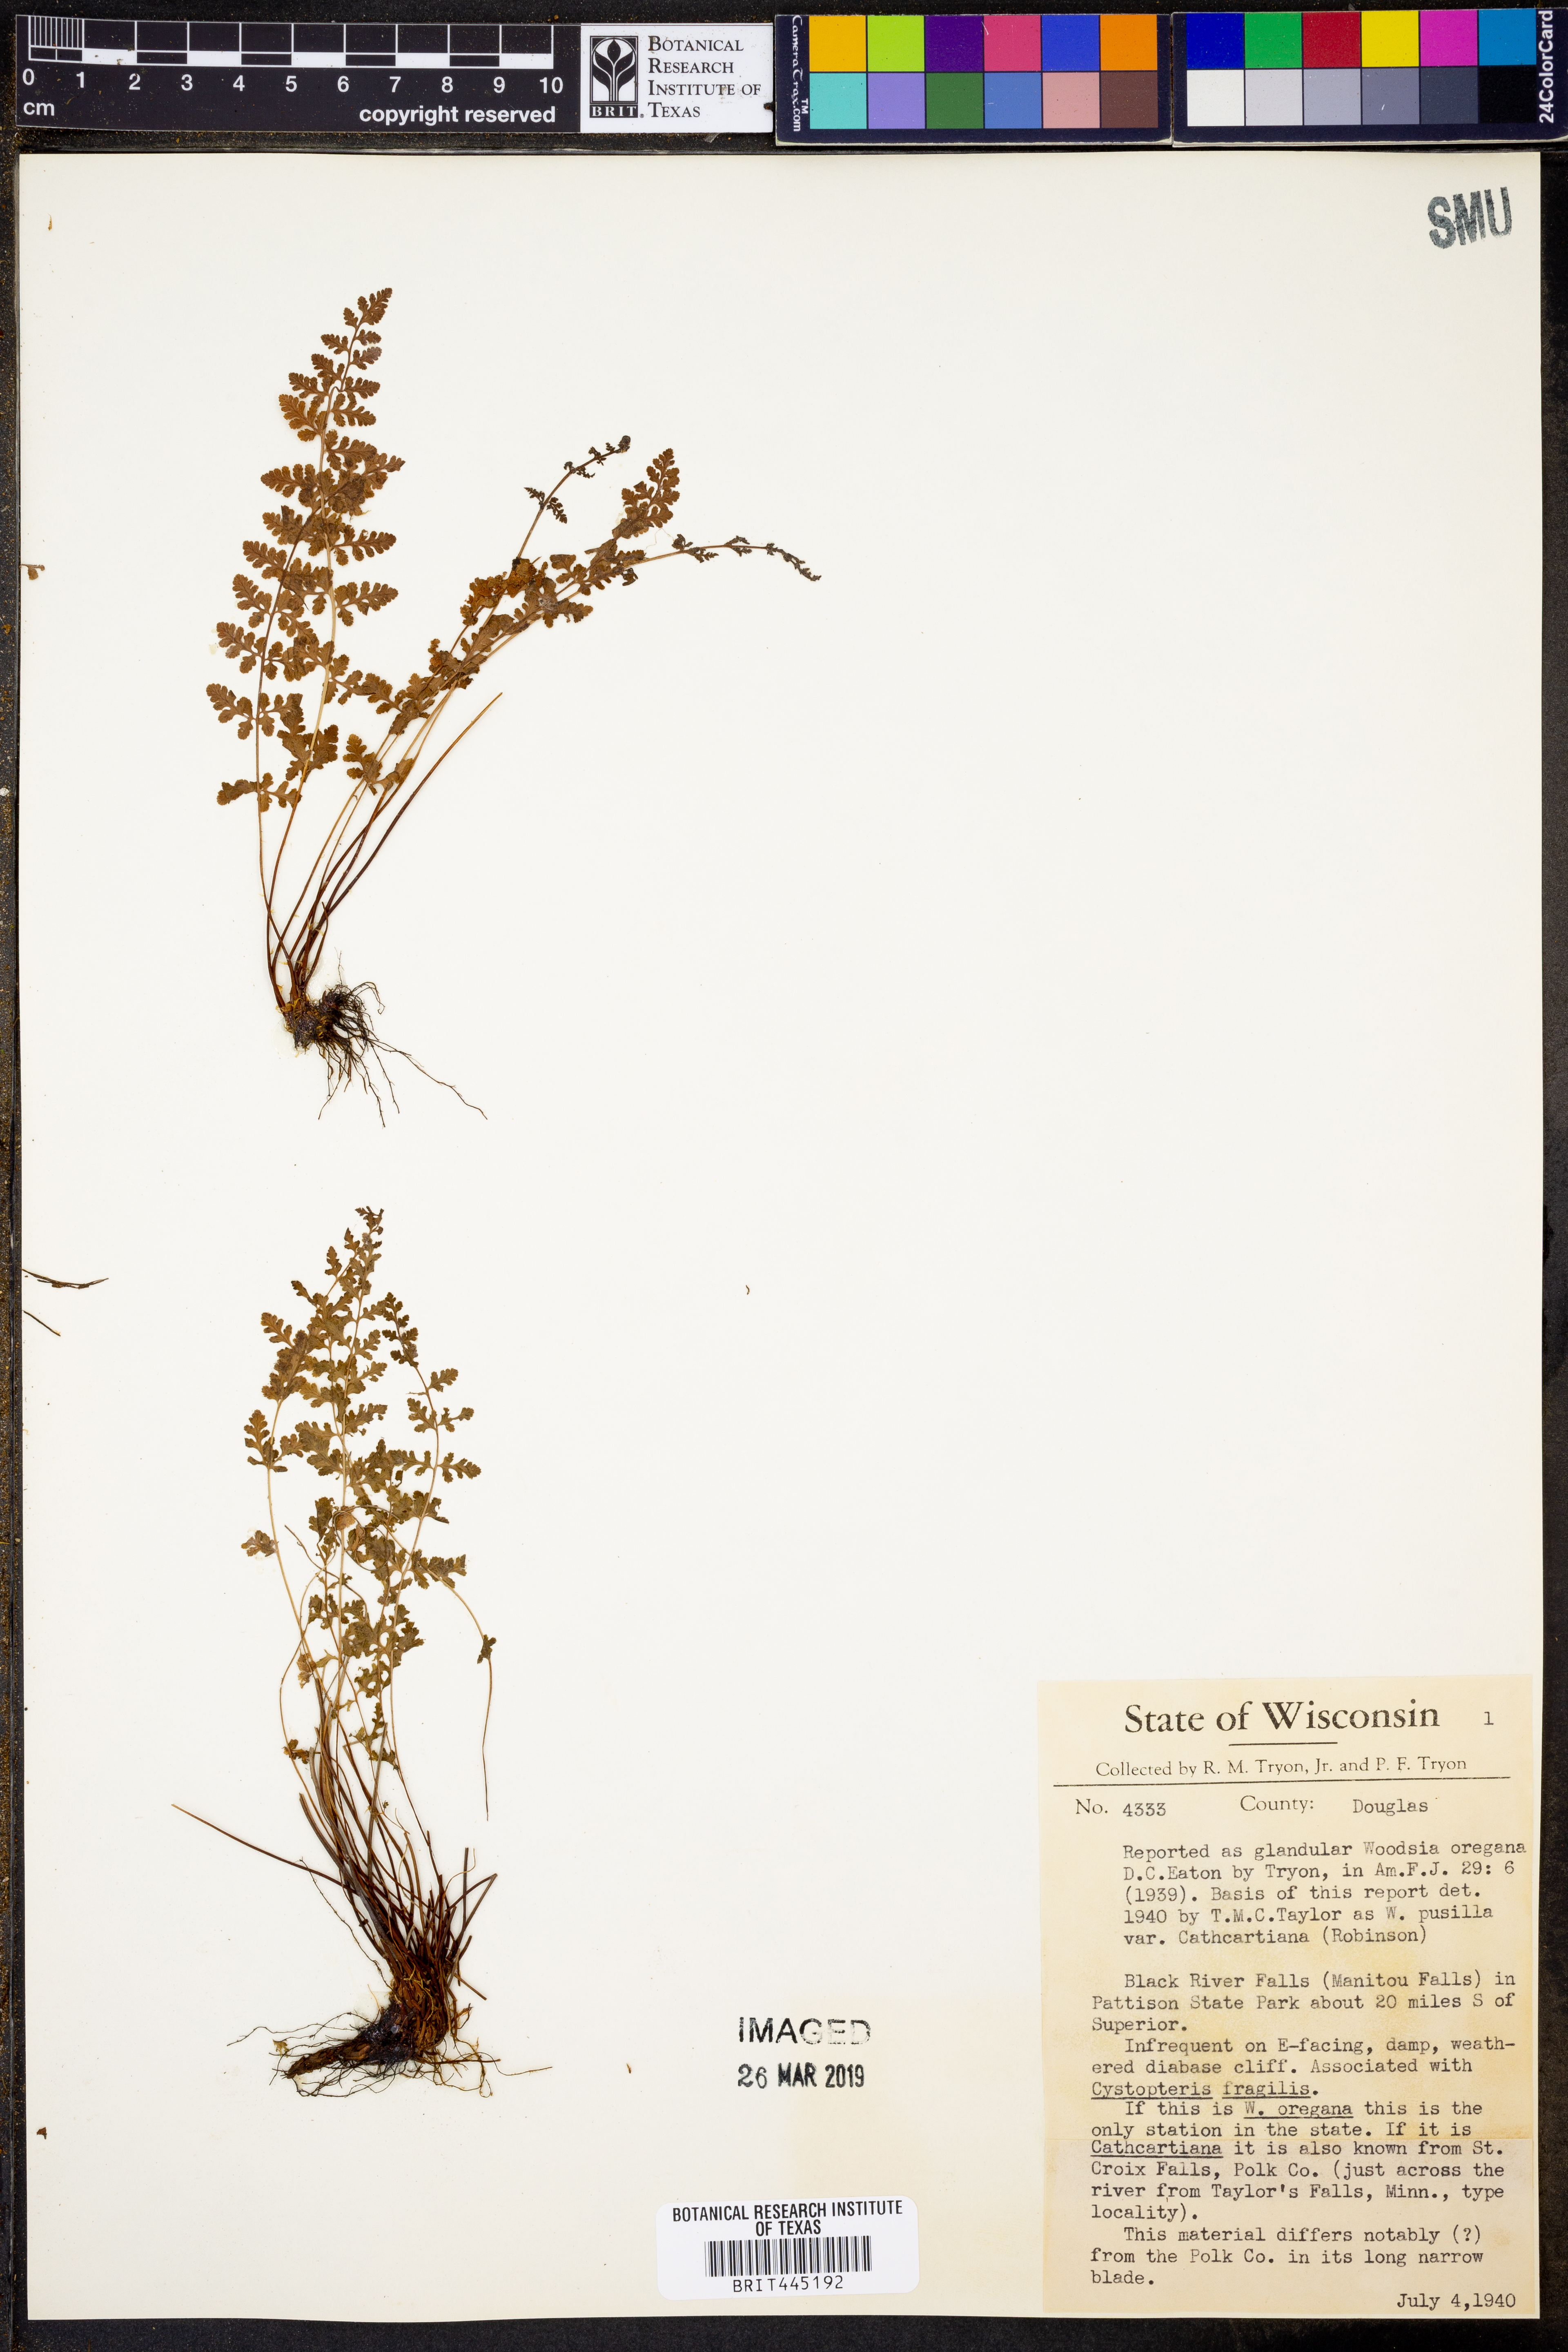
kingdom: Plantae
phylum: Tracheophyta
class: Polypodiopsida
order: Polypodiales
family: Woodsiaceae
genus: Physematium
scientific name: Physematium oreganum
